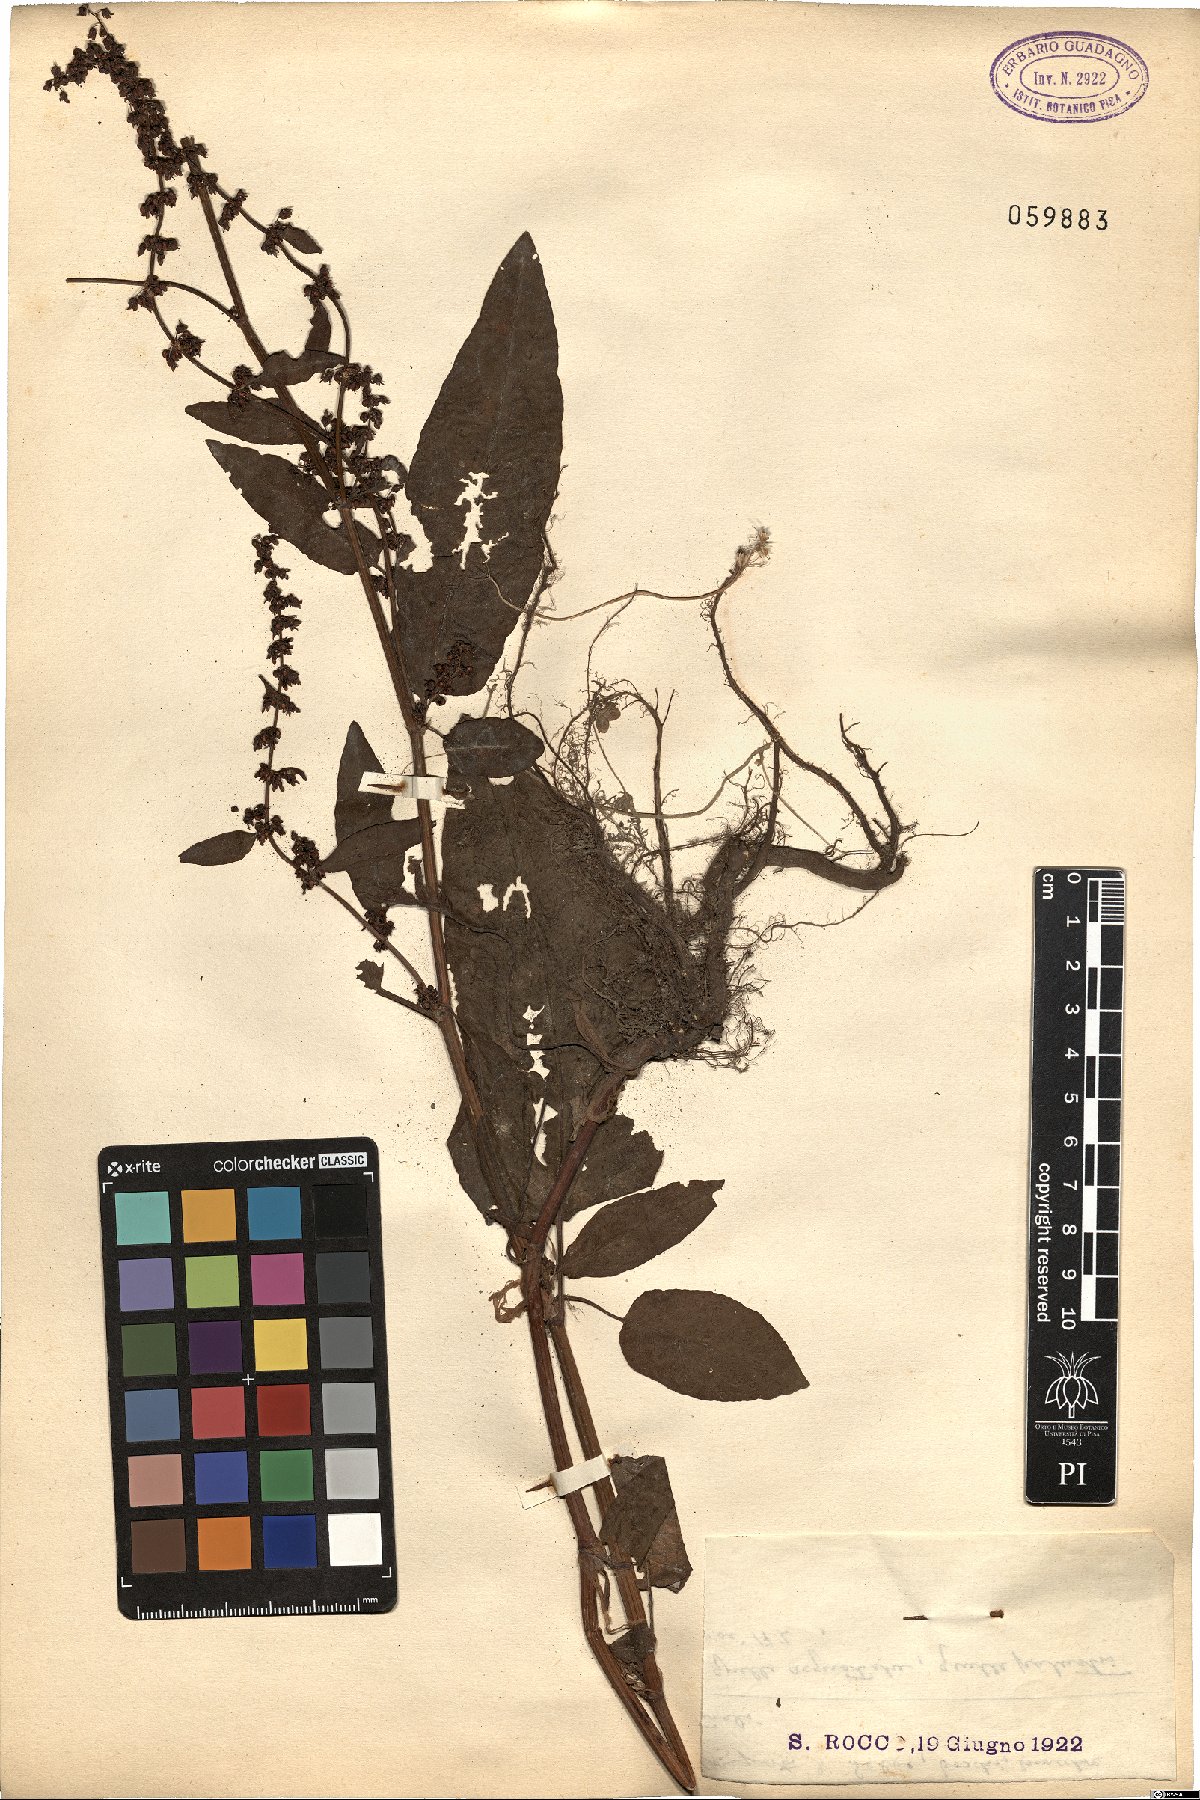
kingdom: Plantae
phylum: Tracheophyta
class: Magnoliopsida
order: Caryophyllales
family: Polygonaceae
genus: Rumex
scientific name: Rumex
